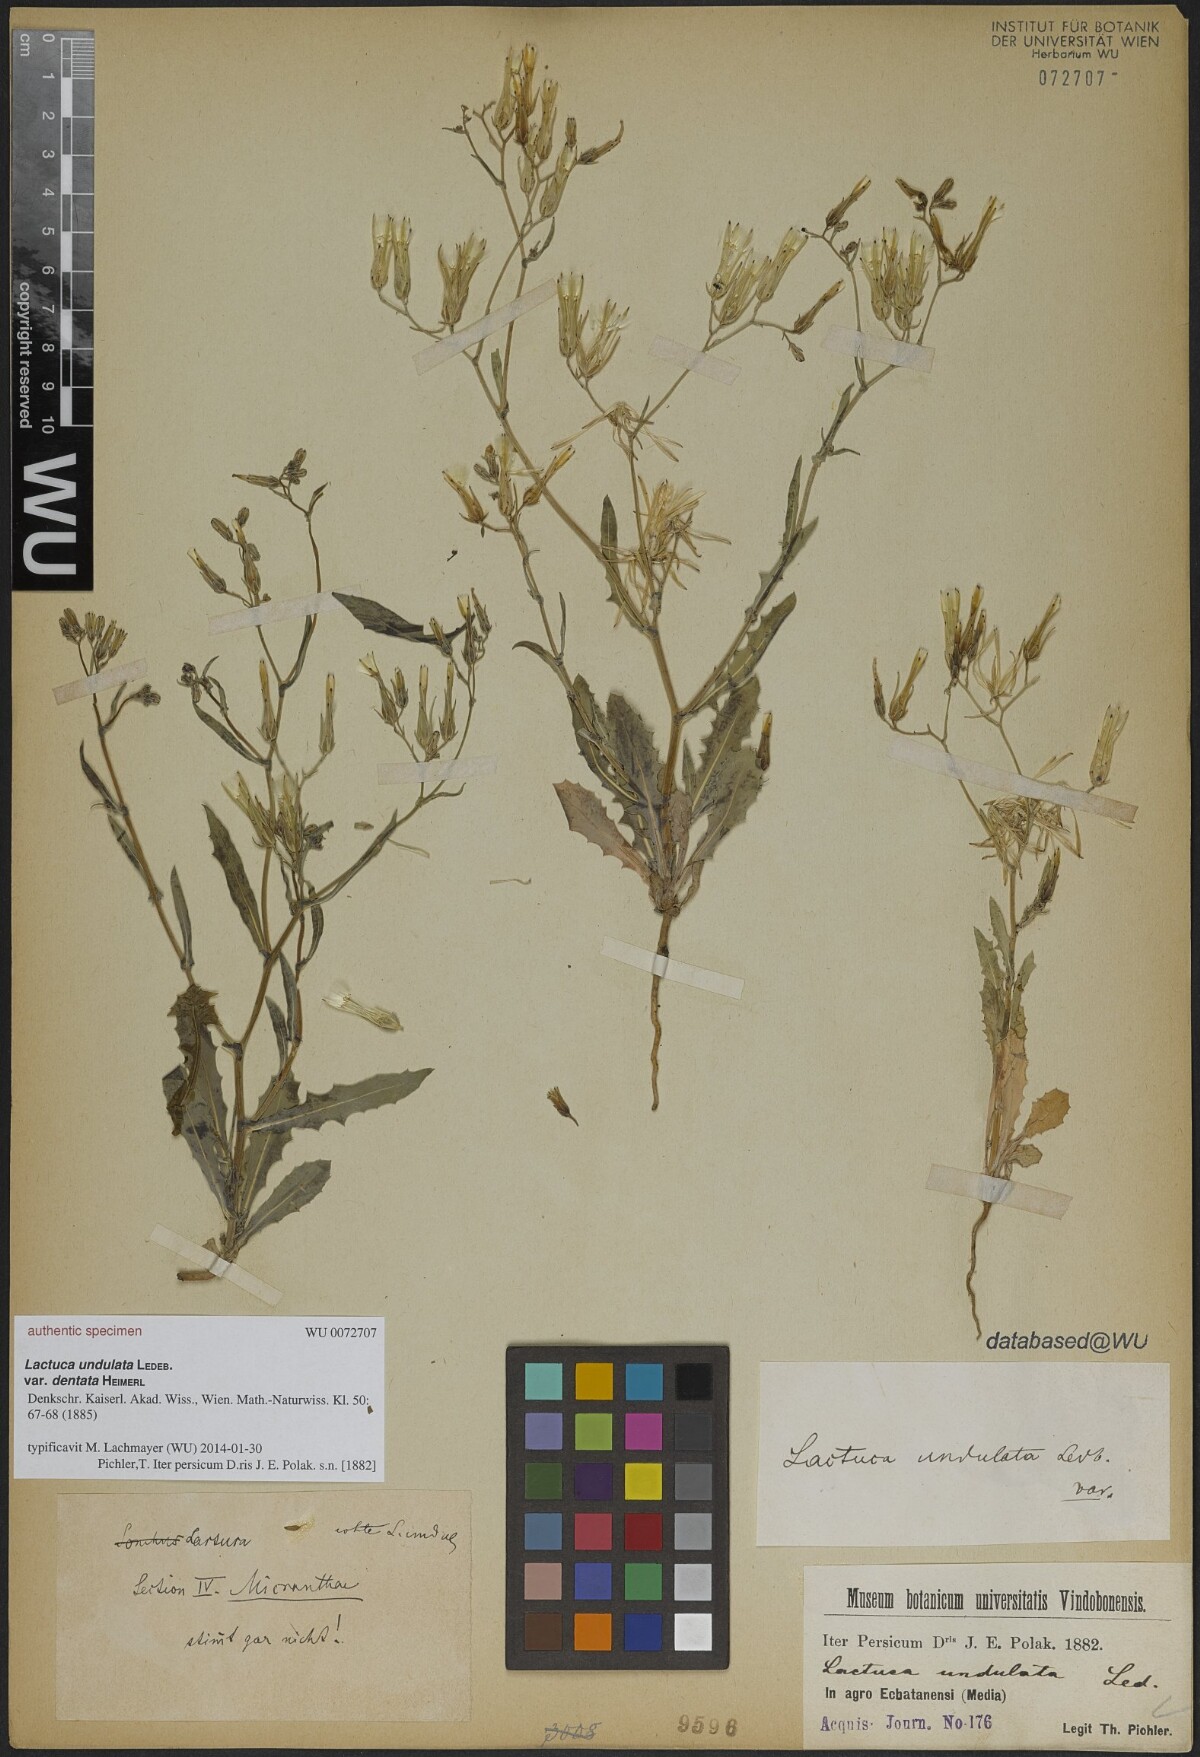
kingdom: Plantae
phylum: Tracheophyta
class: Magnoliopsida
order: Asterales
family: Asteraceae
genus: Lactuca
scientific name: Lactuca undulata
